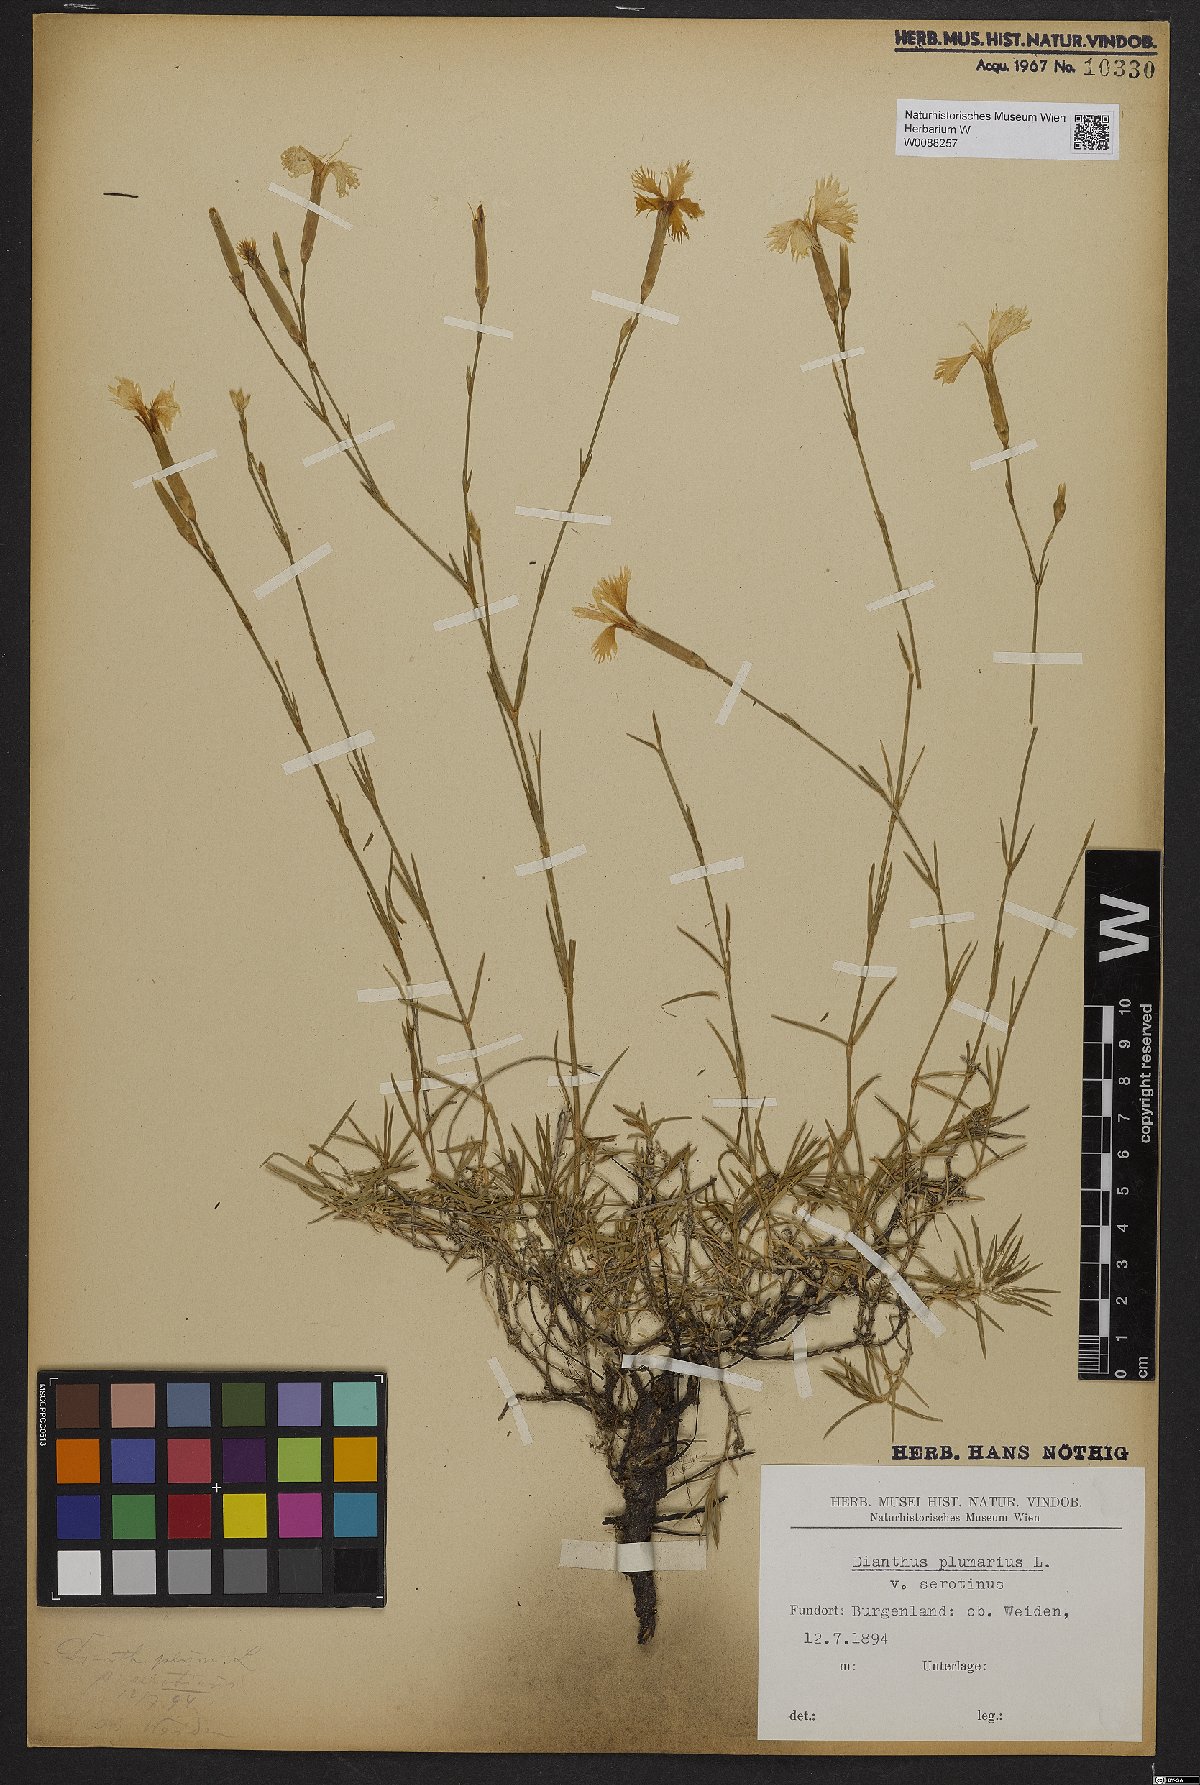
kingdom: Plantae
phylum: Tracheophyta
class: Magnoliopsida
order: Caryophyllales
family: Caryophyllaceae
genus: Dianthus
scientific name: Dianthus plumarius
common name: Pink
